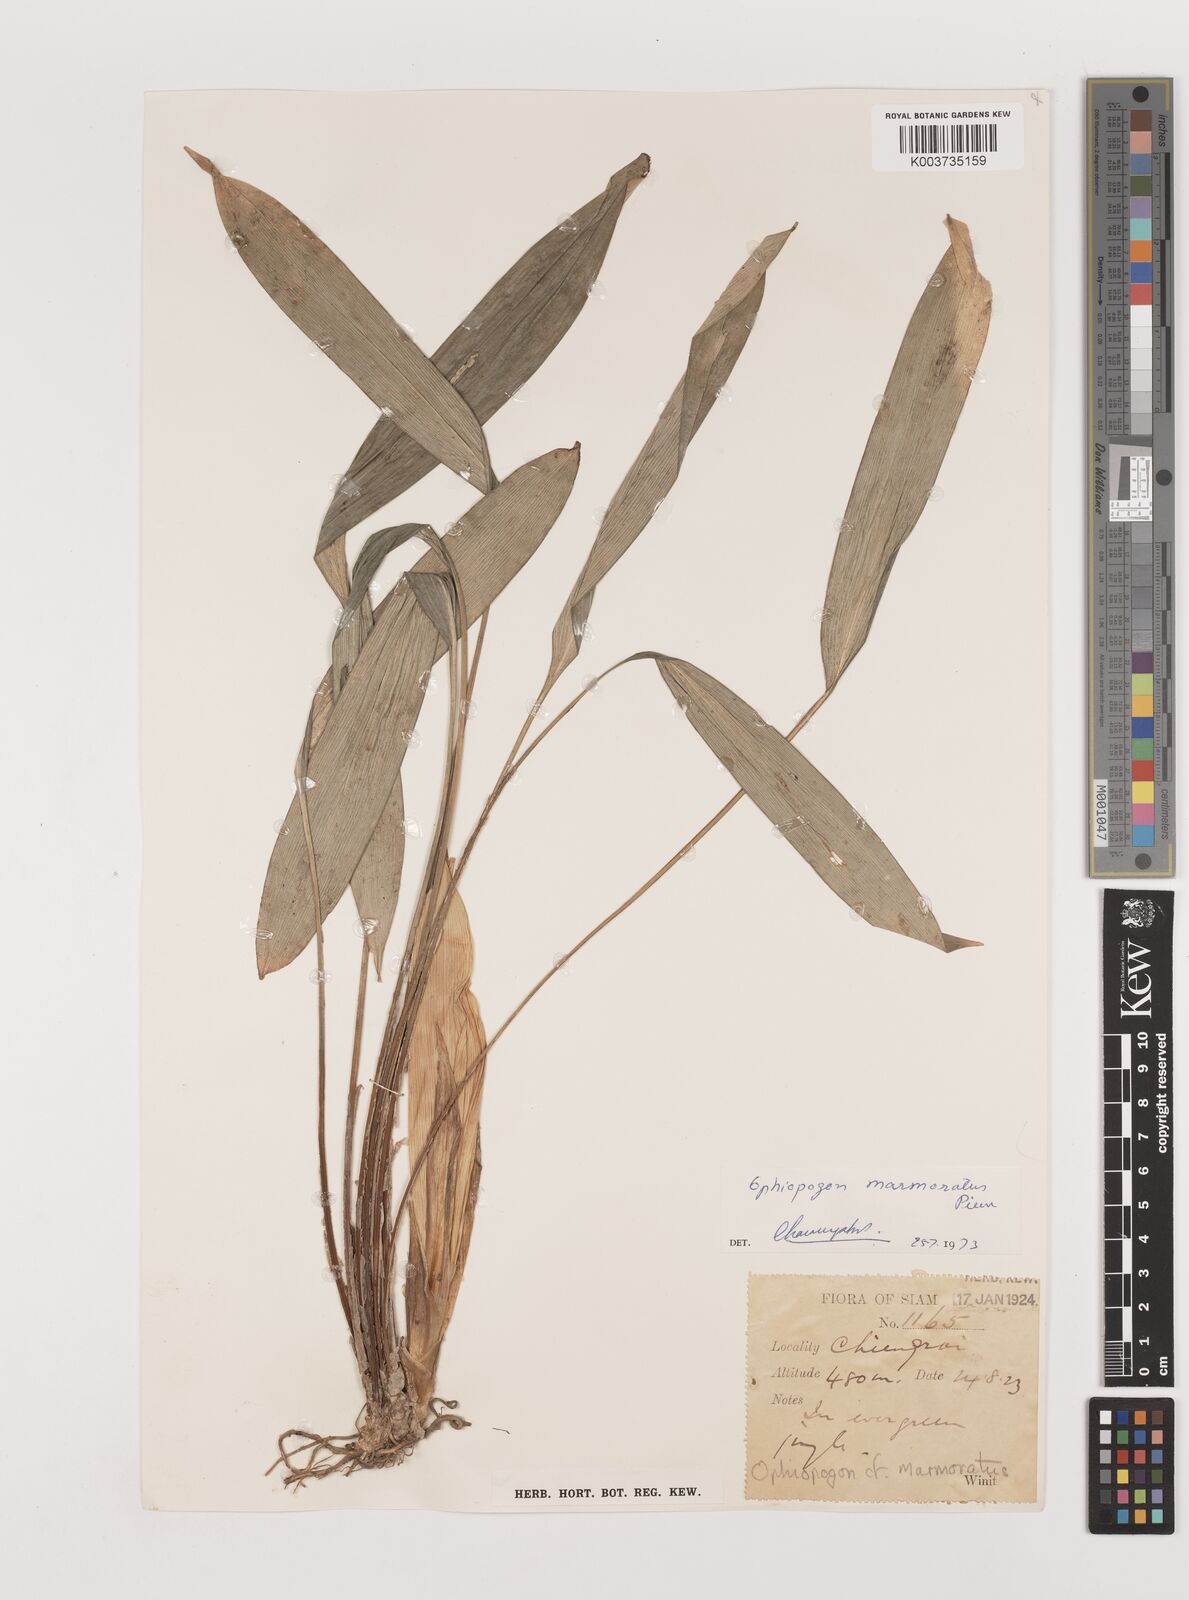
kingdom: Plantae
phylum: Tracheophyta
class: Liliopsida
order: Asparagales
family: Asparagaceae
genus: Ophiopogon
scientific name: Ophiopogon marmoratus
